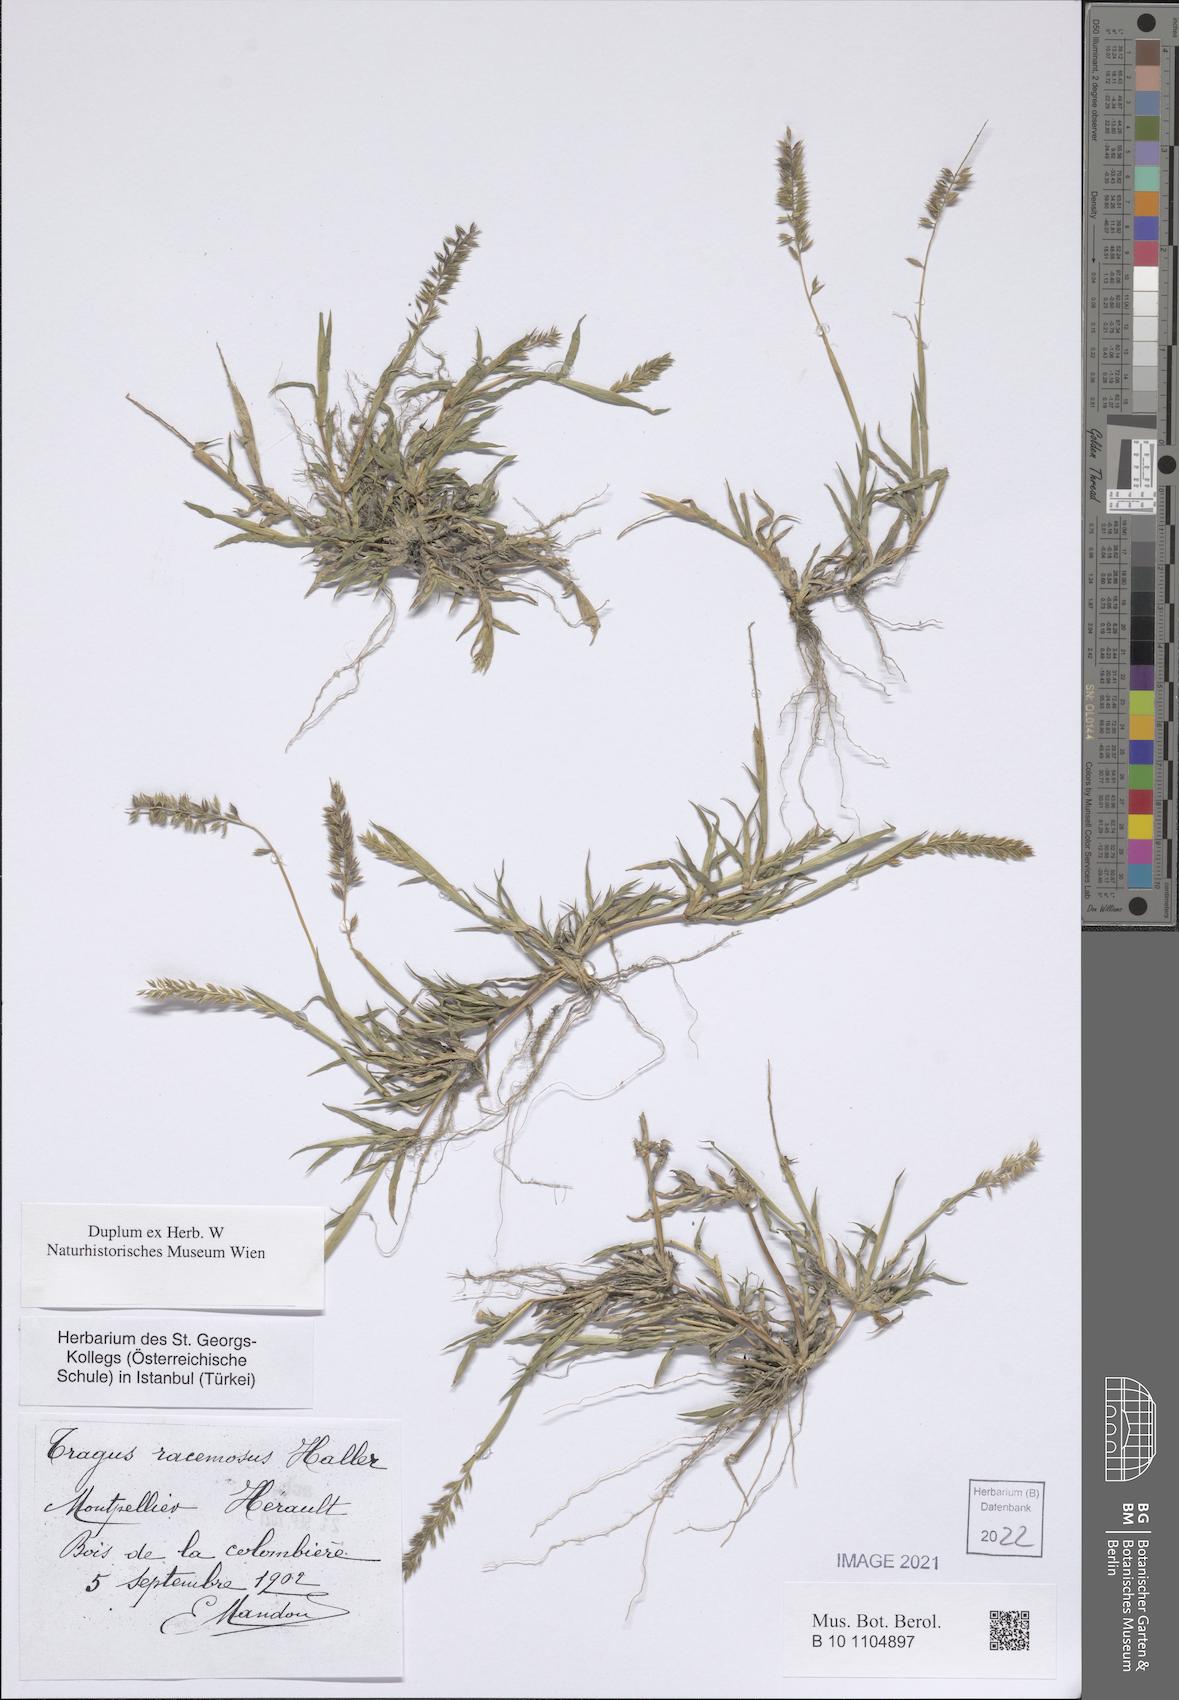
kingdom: Plantae
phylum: Tracheophyta
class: Liliopsida
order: Poales
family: Poaceae
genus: Tragus
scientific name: Tragus racemosus
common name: European bur-grass
